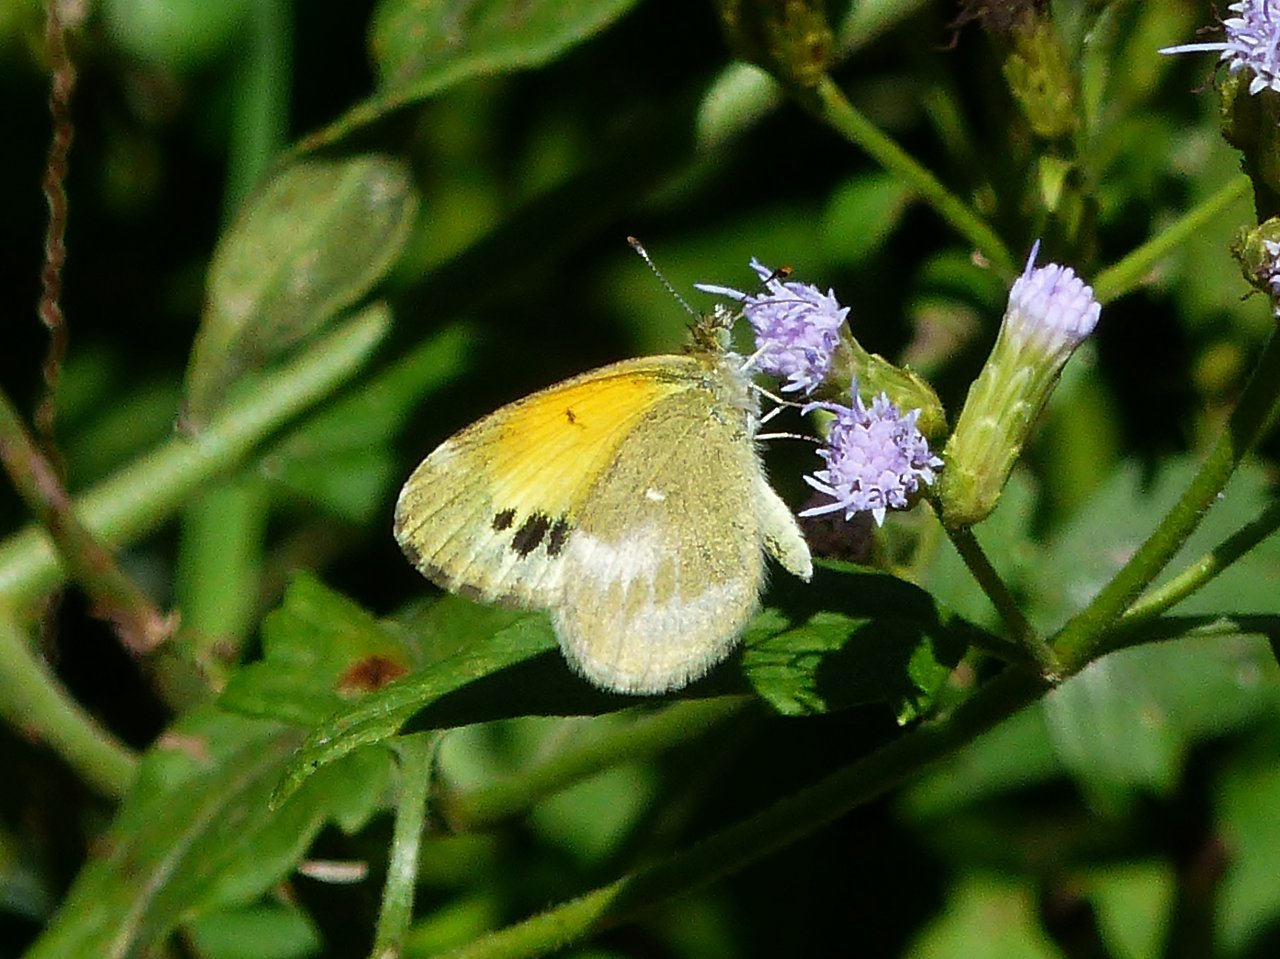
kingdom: Animalia
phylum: Arthropoda
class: Insecta
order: Lepidoptera
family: Pieridae
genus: Nathalis
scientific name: Nathalis iole
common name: Dainty Sulphur
